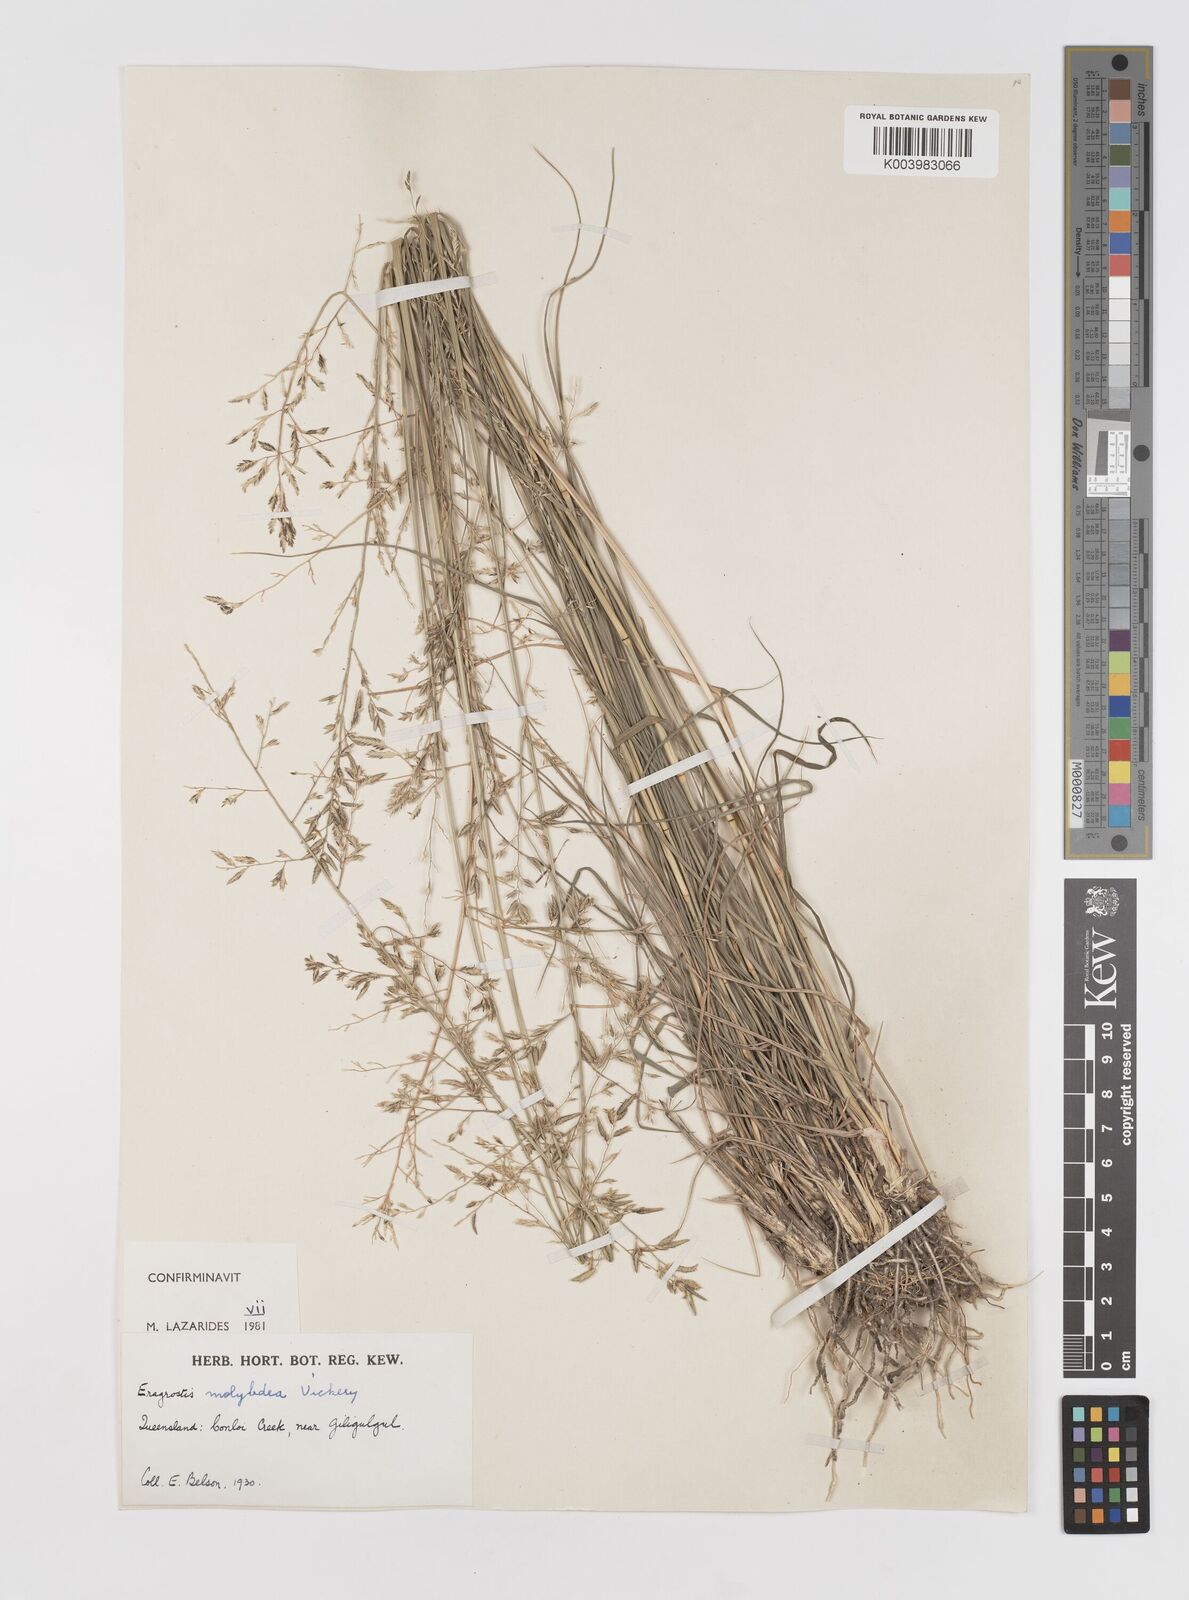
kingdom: Plantae
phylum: Tracheophyta
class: Liliopsida
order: Poales
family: Poaceae
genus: Eragrostis
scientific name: Eragrostis leptostachya
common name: Australian lovegrass
